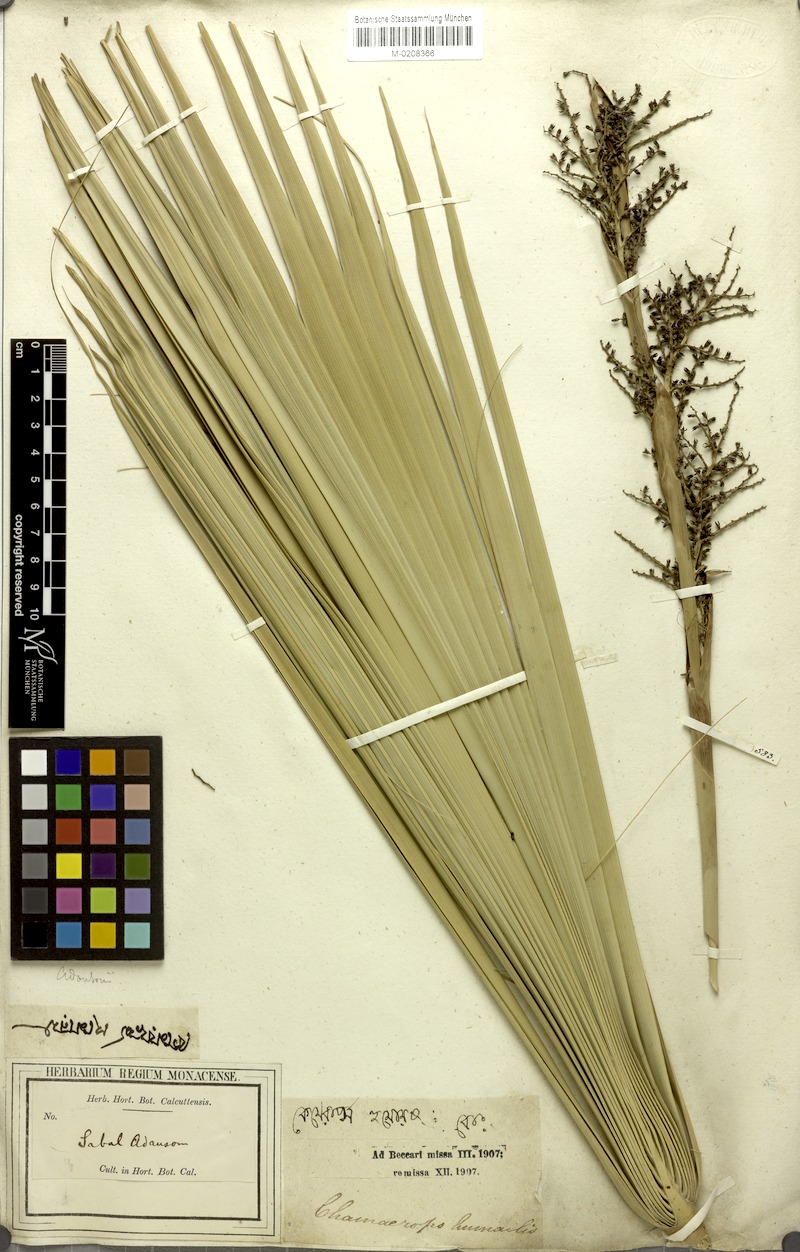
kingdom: Plantae
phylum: Tracheophyta
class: Liliopsida
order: Arecales
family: Arecaceae
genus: Sabal
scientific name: Sabal minor
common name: Dwarf palmetto
